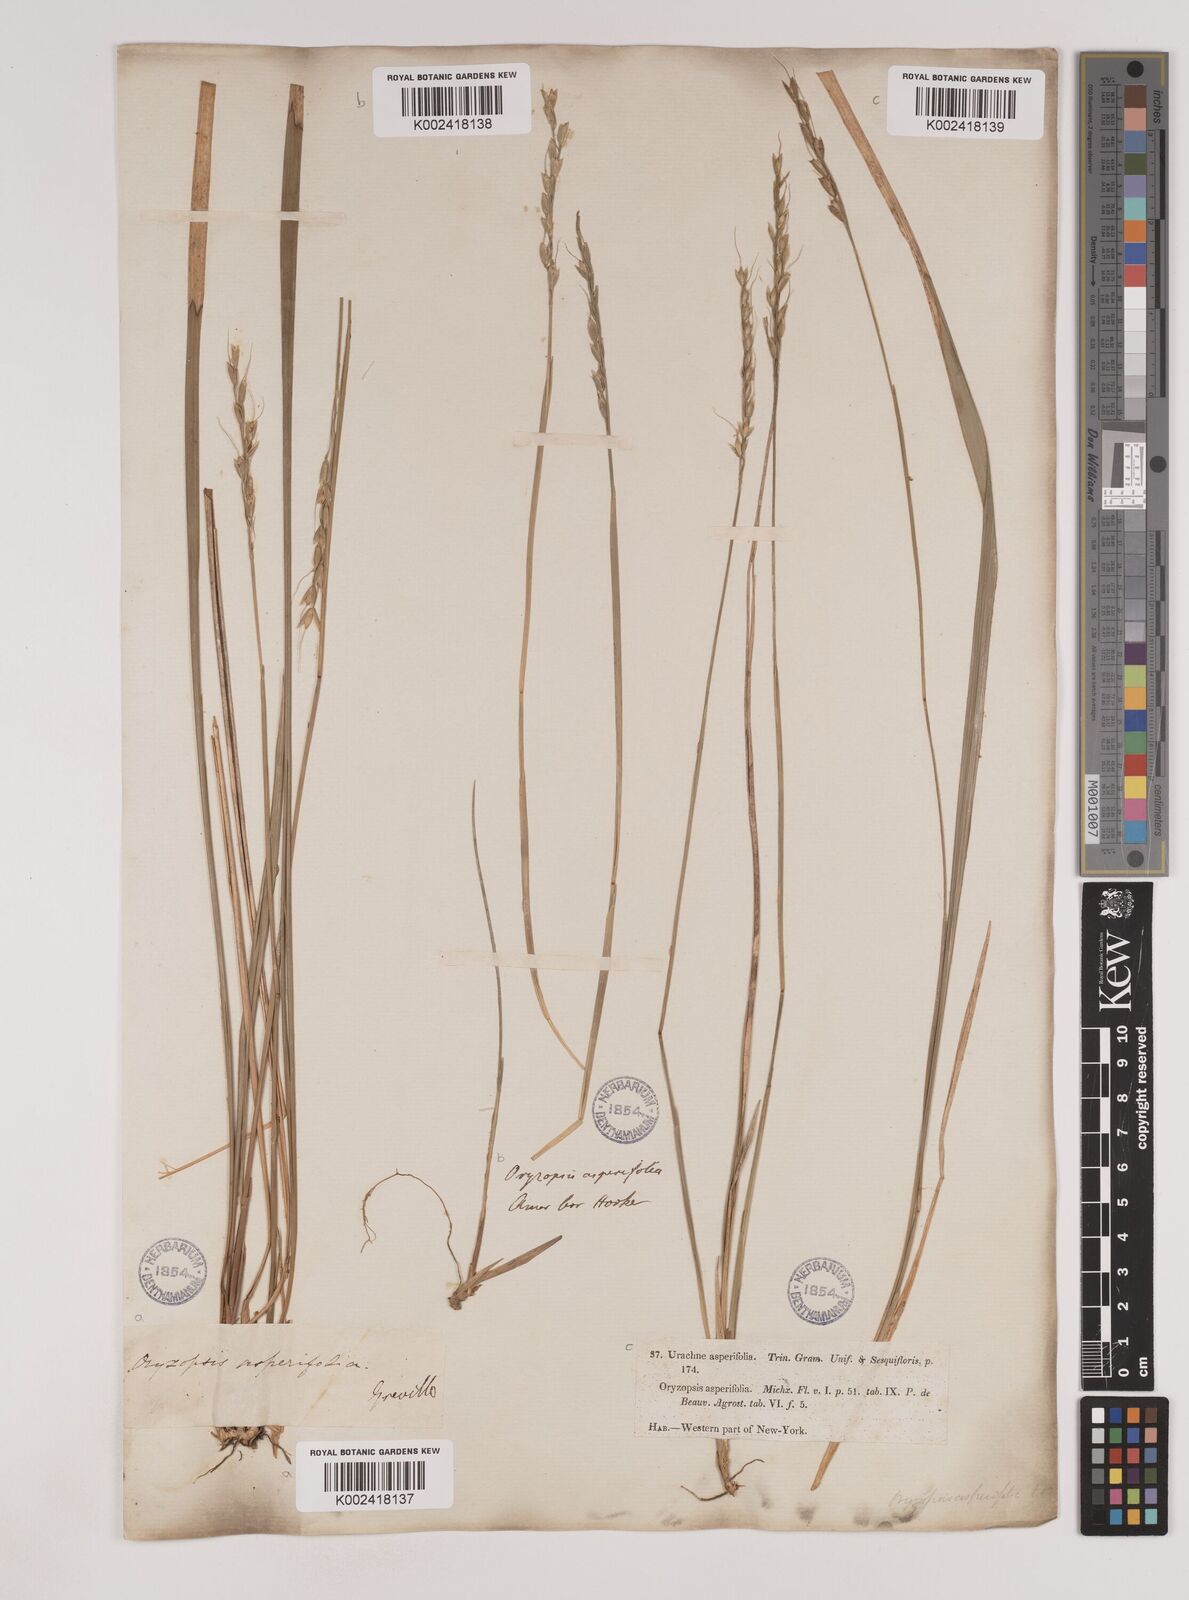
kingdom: Plantae
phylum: Tracheophyta
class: Liliopsida
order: Poales
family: Poaceae
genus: Oryzopsis
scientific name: Oryzopsis asperifolia
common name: Rough-leaved mountain rice
